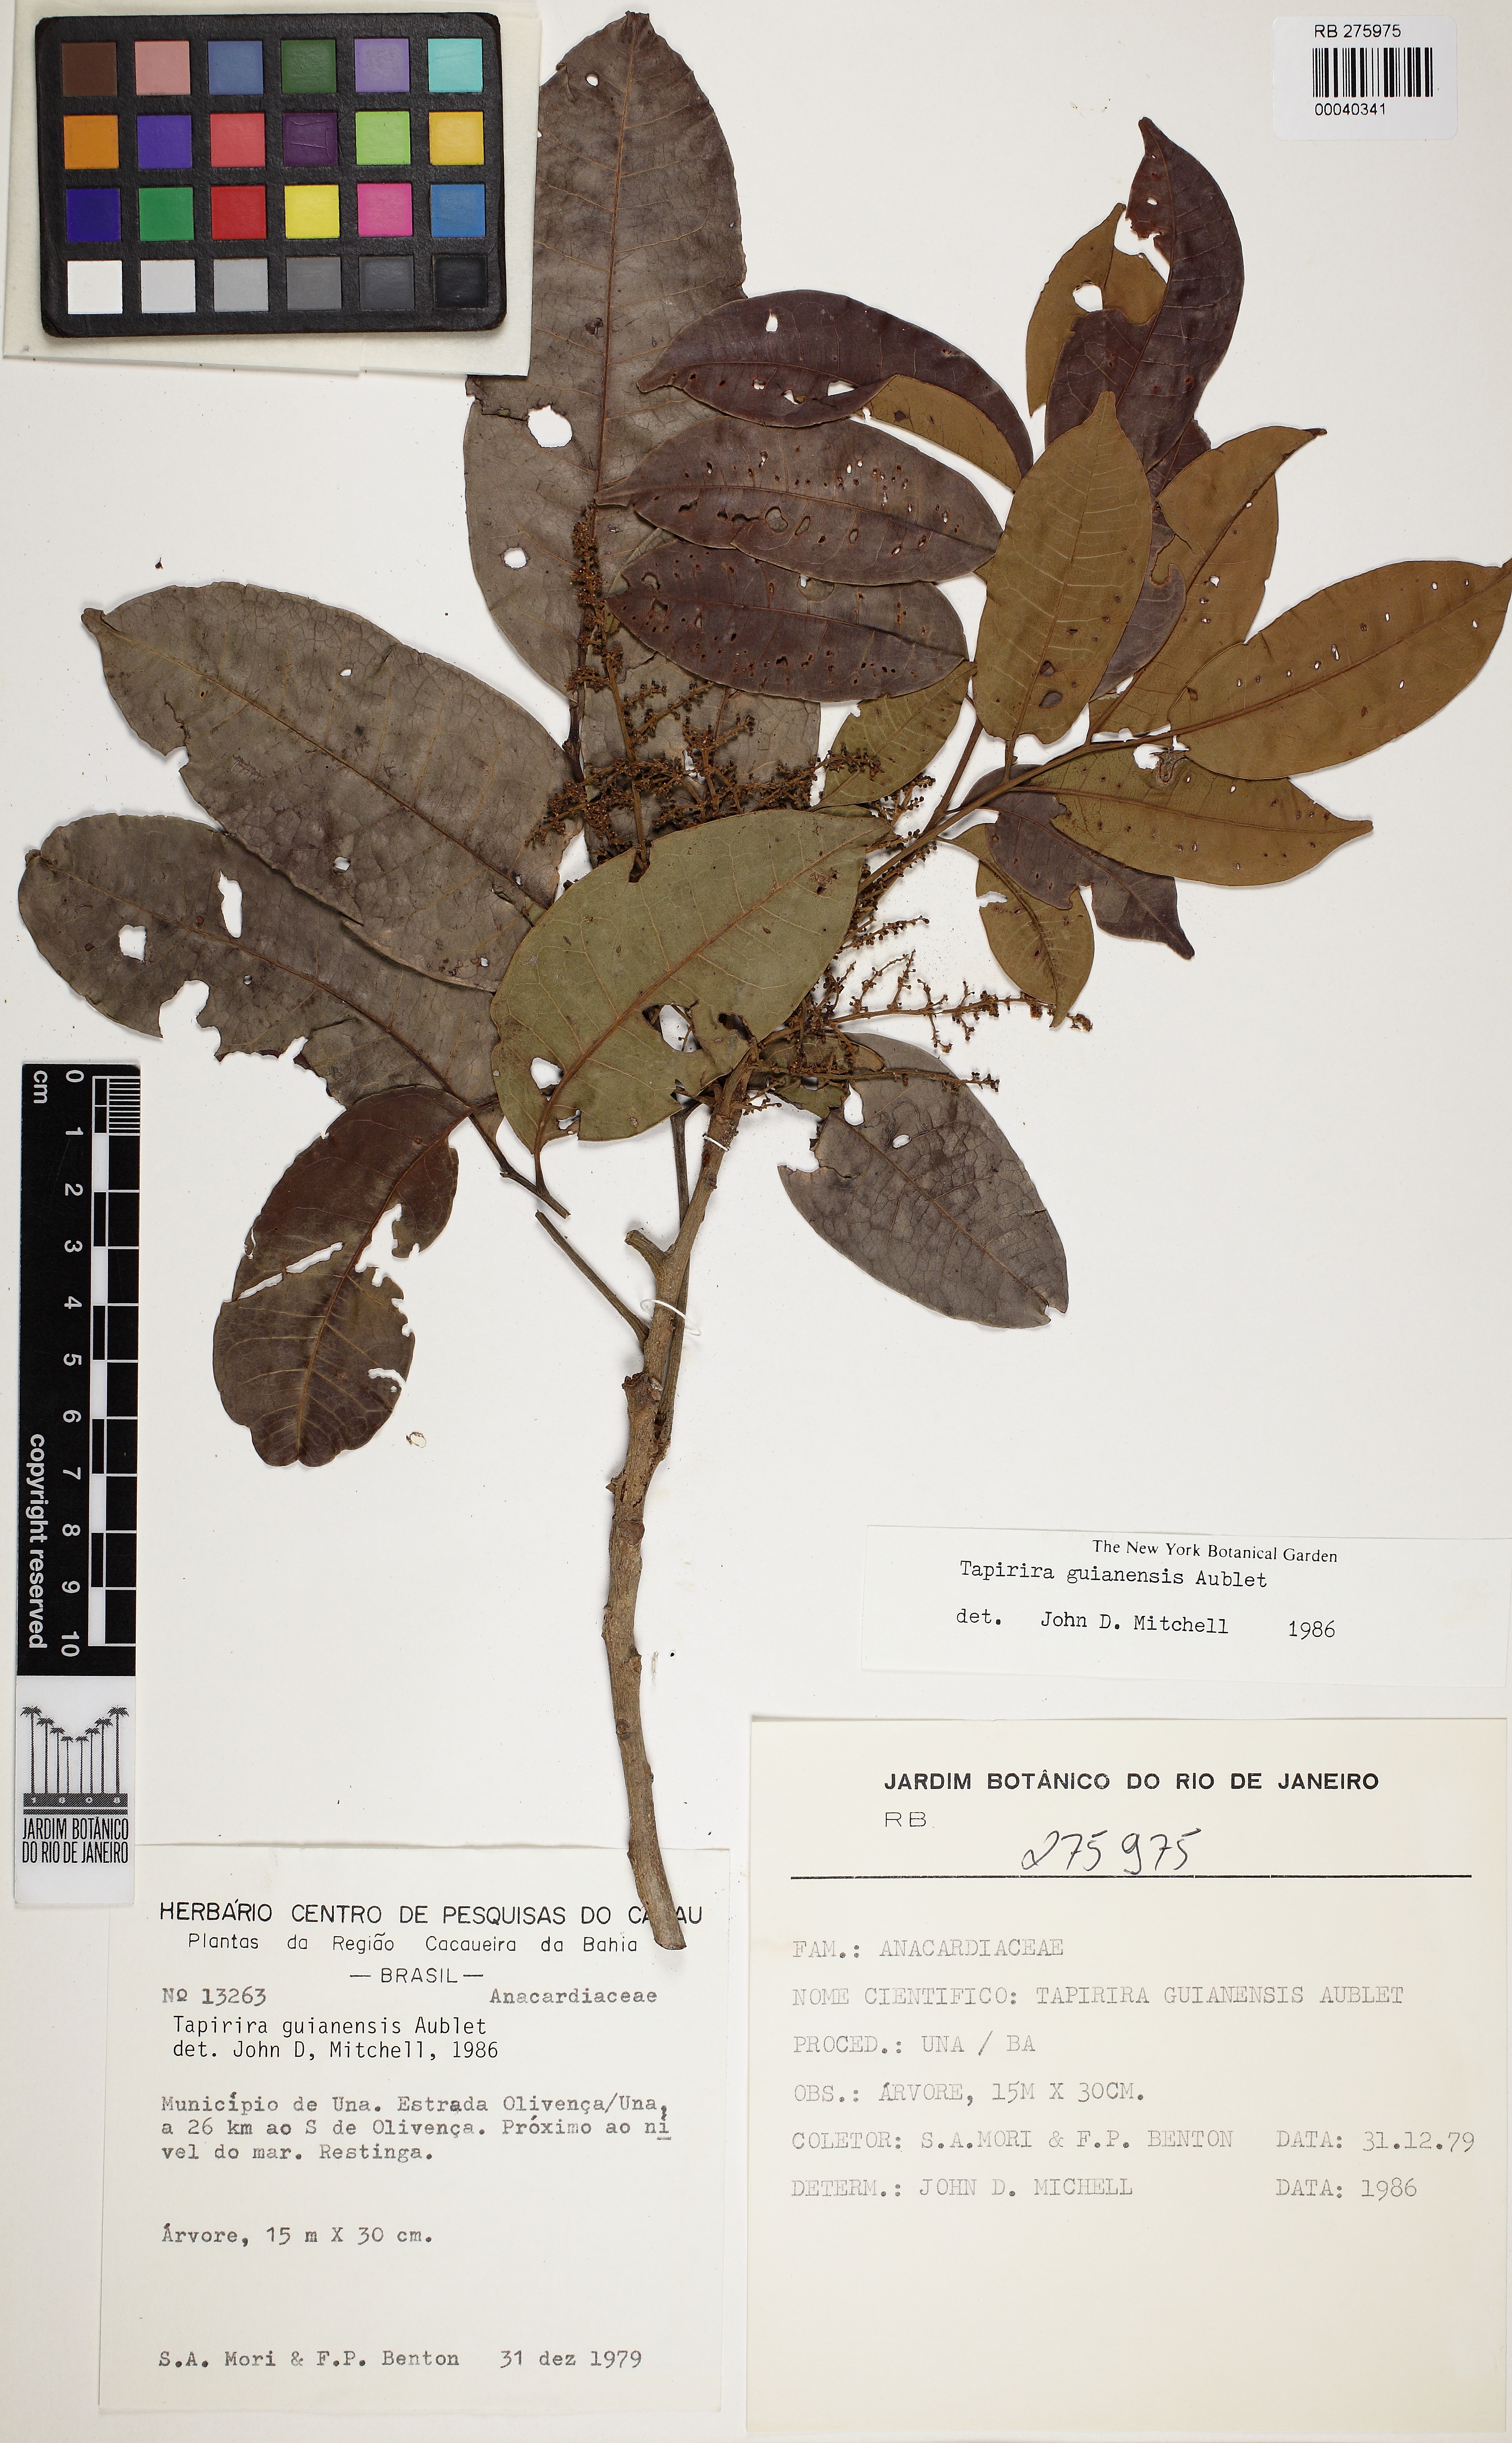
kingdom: Plantae
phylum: Tracheophyta
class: Magnoliopsida
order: Sapindales
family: Anacardiaceae
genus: Tapirira
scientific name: Tapirira guianensis
